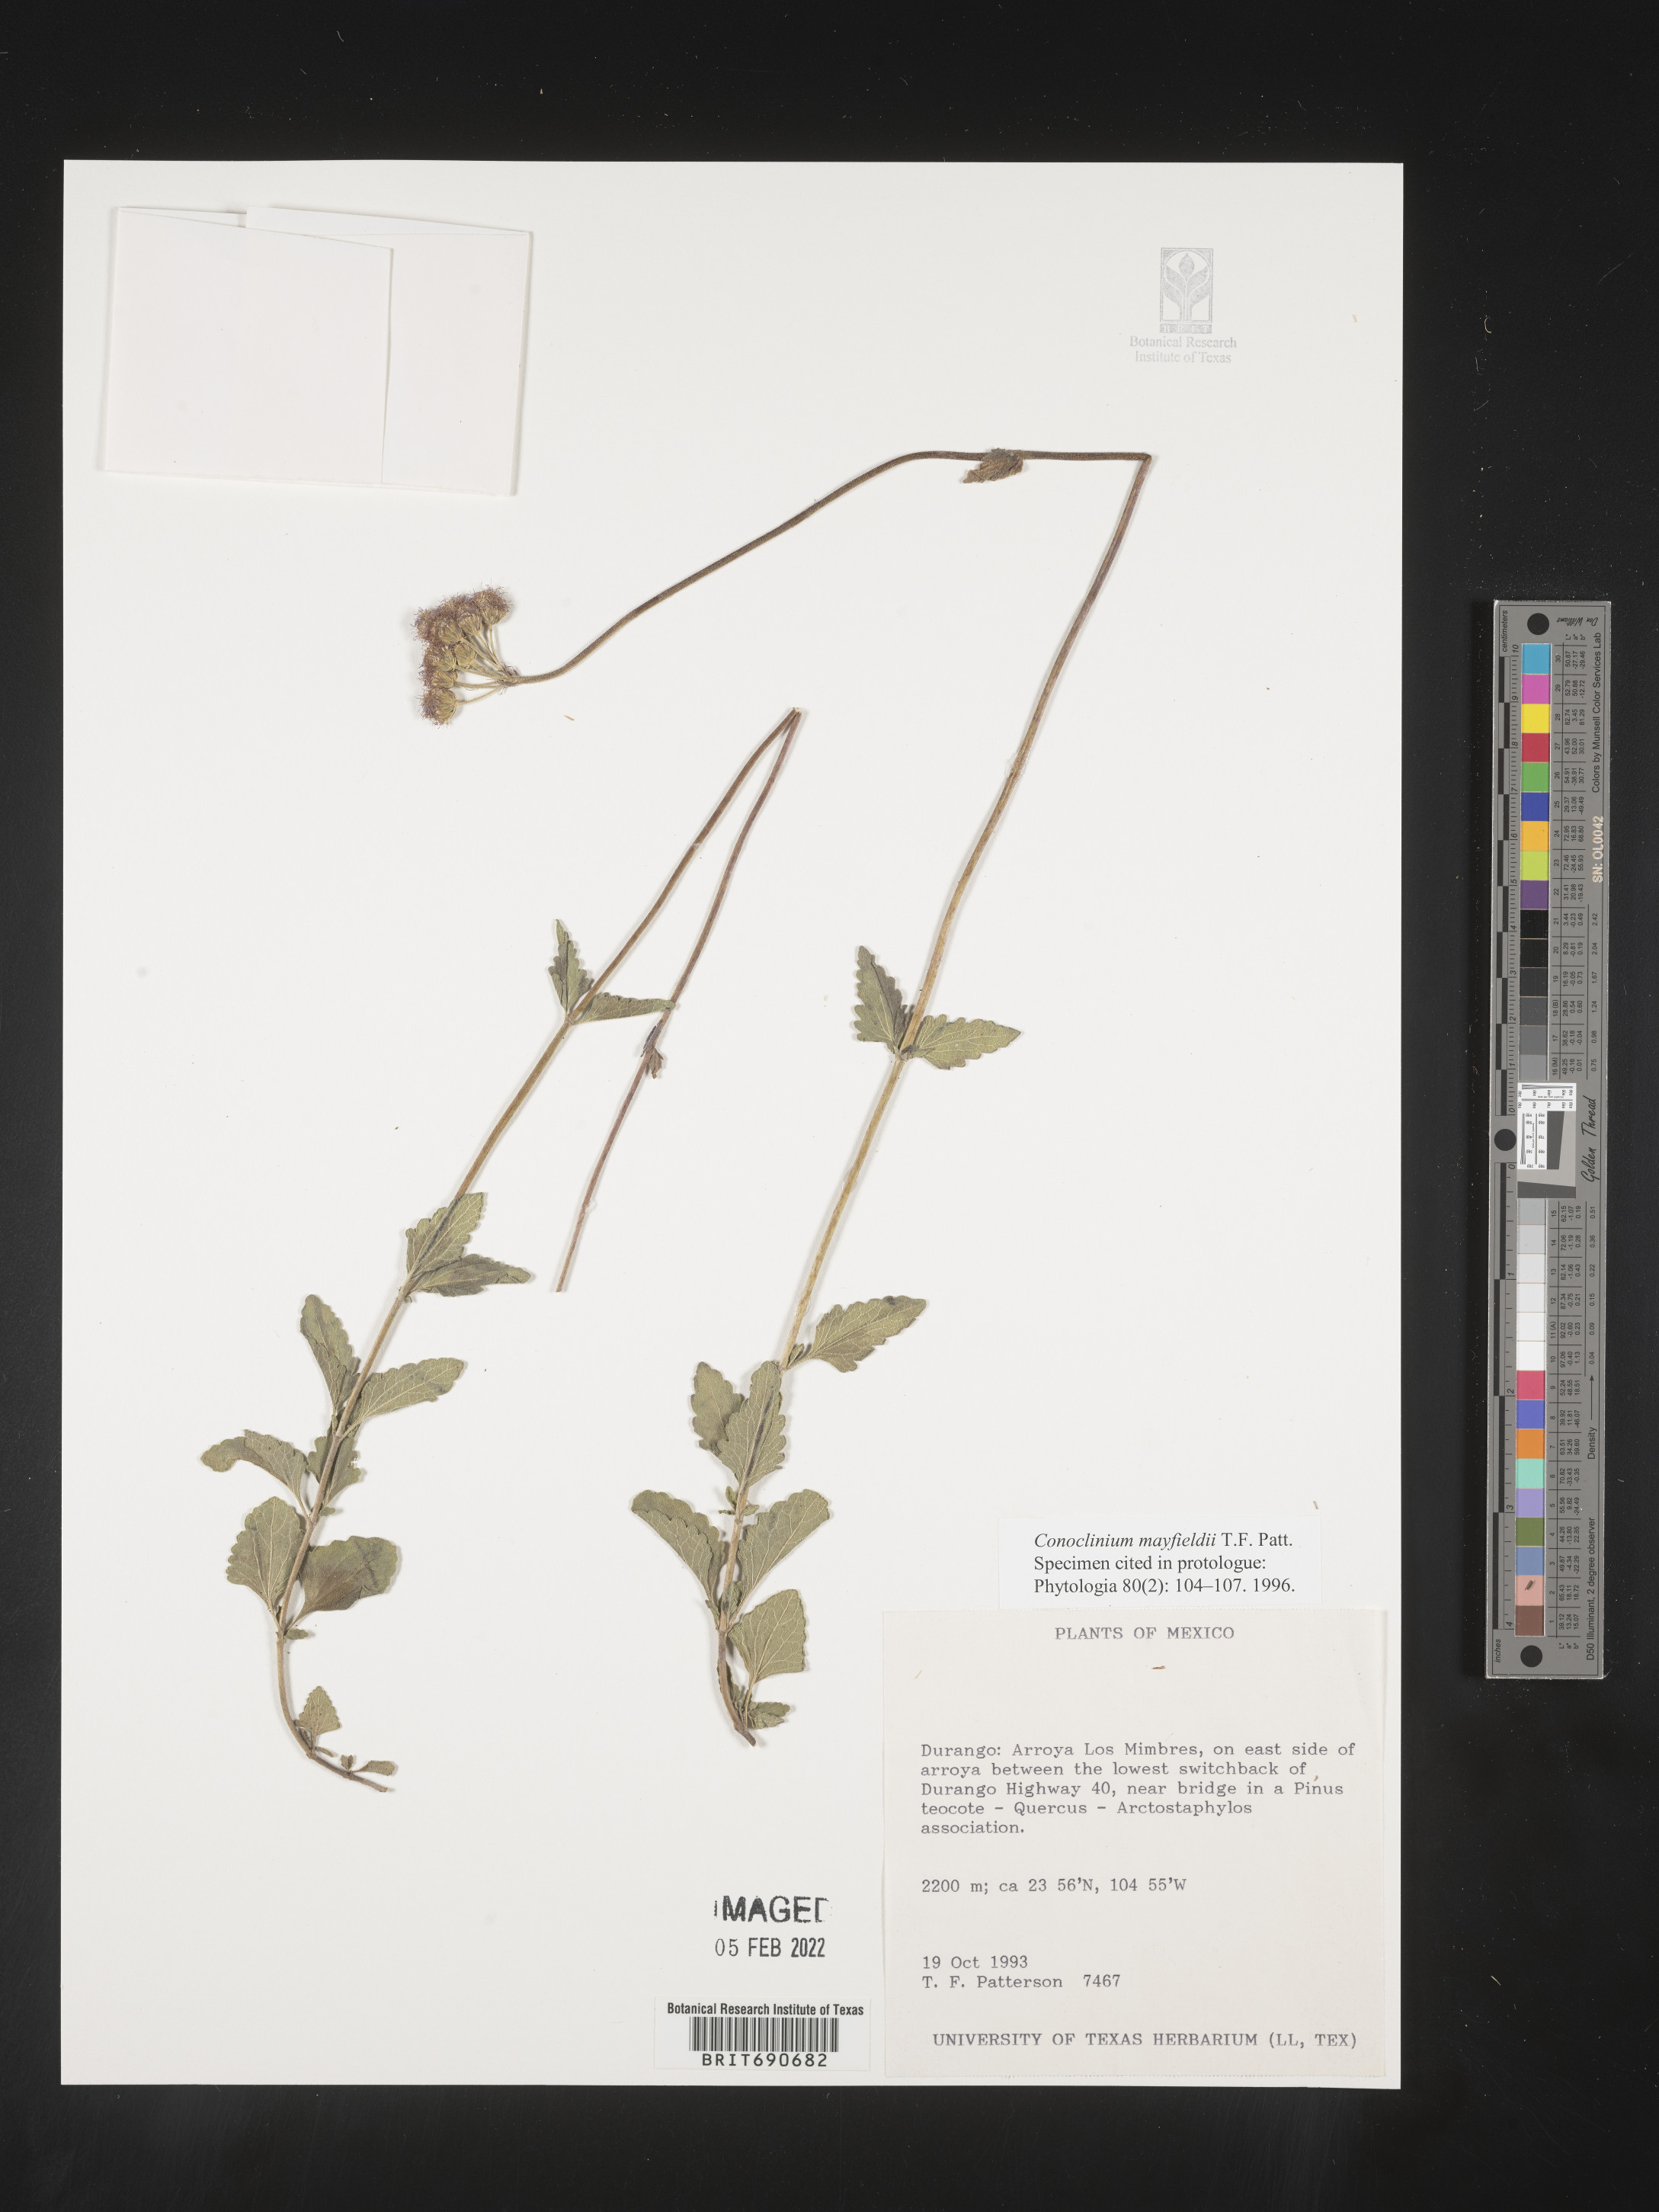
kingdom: Plantae
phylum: Tracheophyta
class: Magnoliopsida
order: Asterales
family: Asteraceae
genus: Conoclinium
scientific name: Conoclinium
